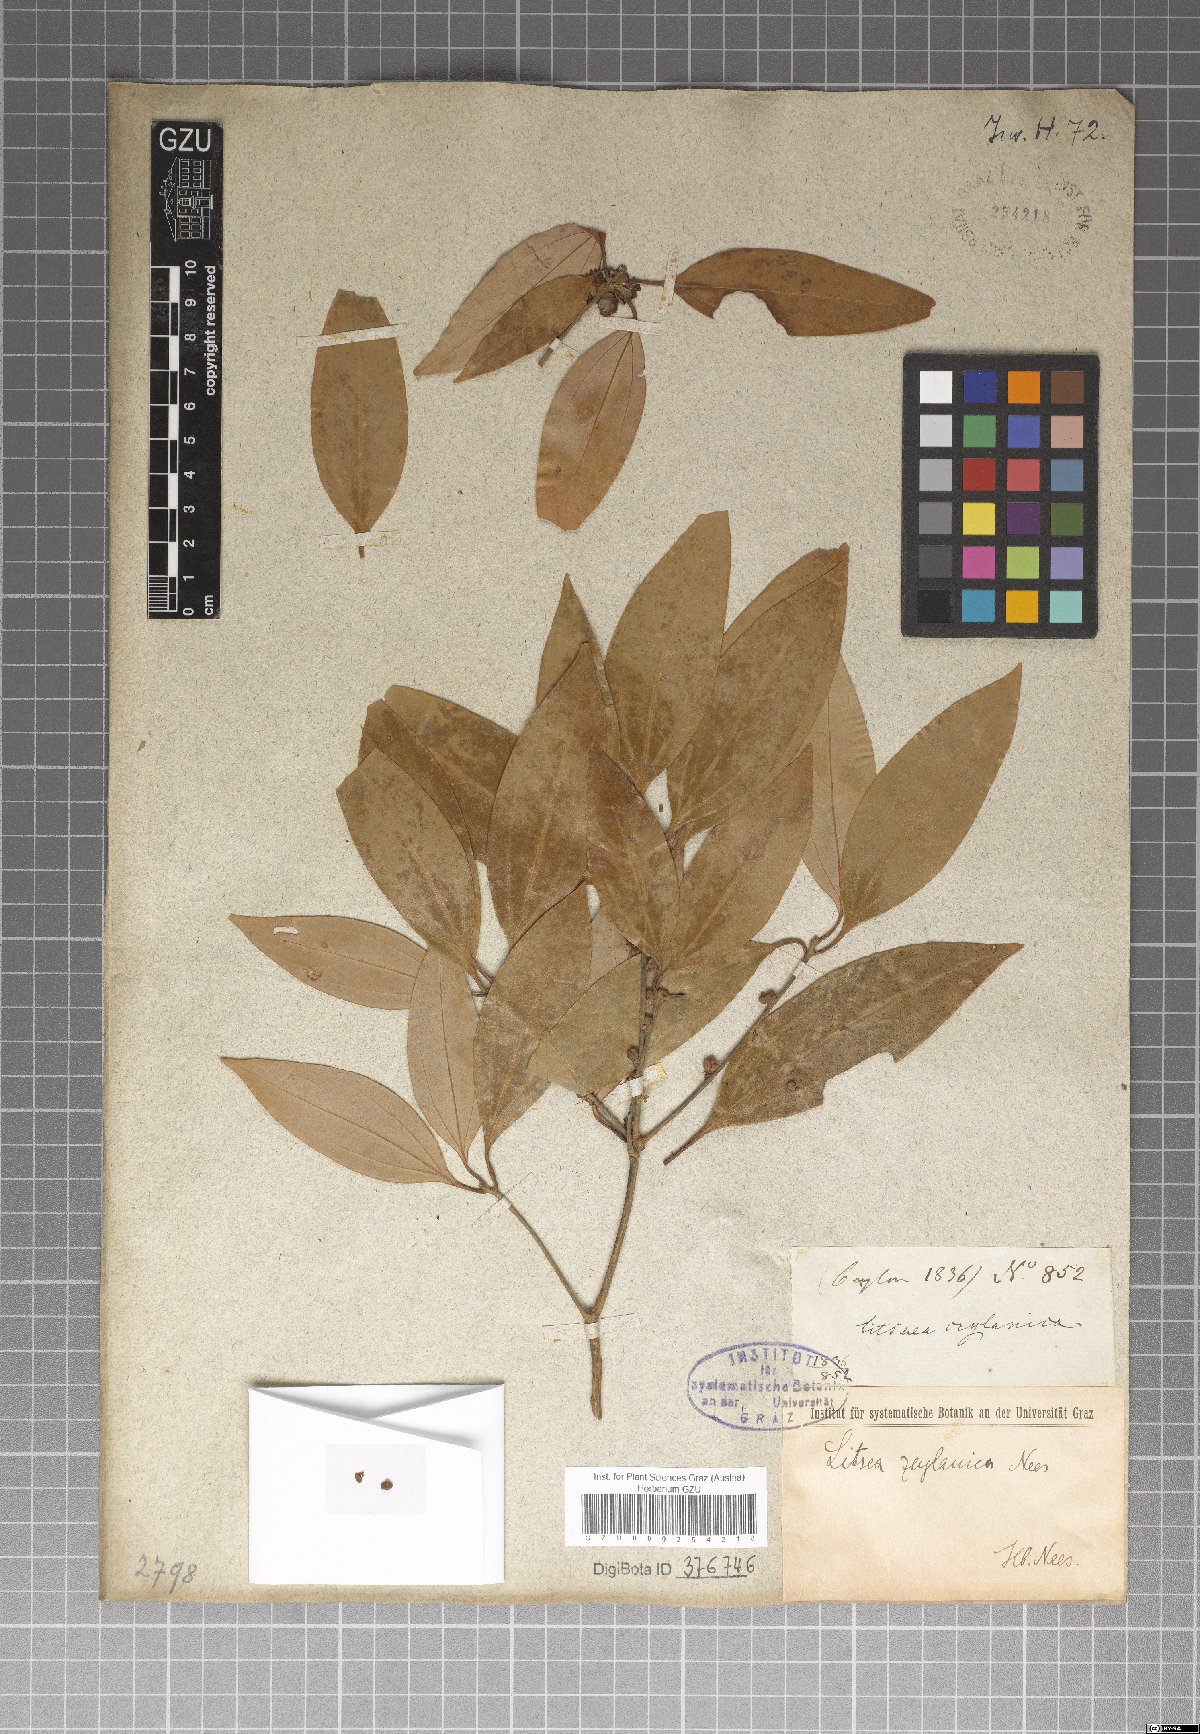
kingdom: Plantae
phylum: Tracheophyta
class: Magnoliopsida
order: Laurales
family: Lauraceae
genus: Neolitsea
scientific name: Neolitsea cassia
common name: Laurel
